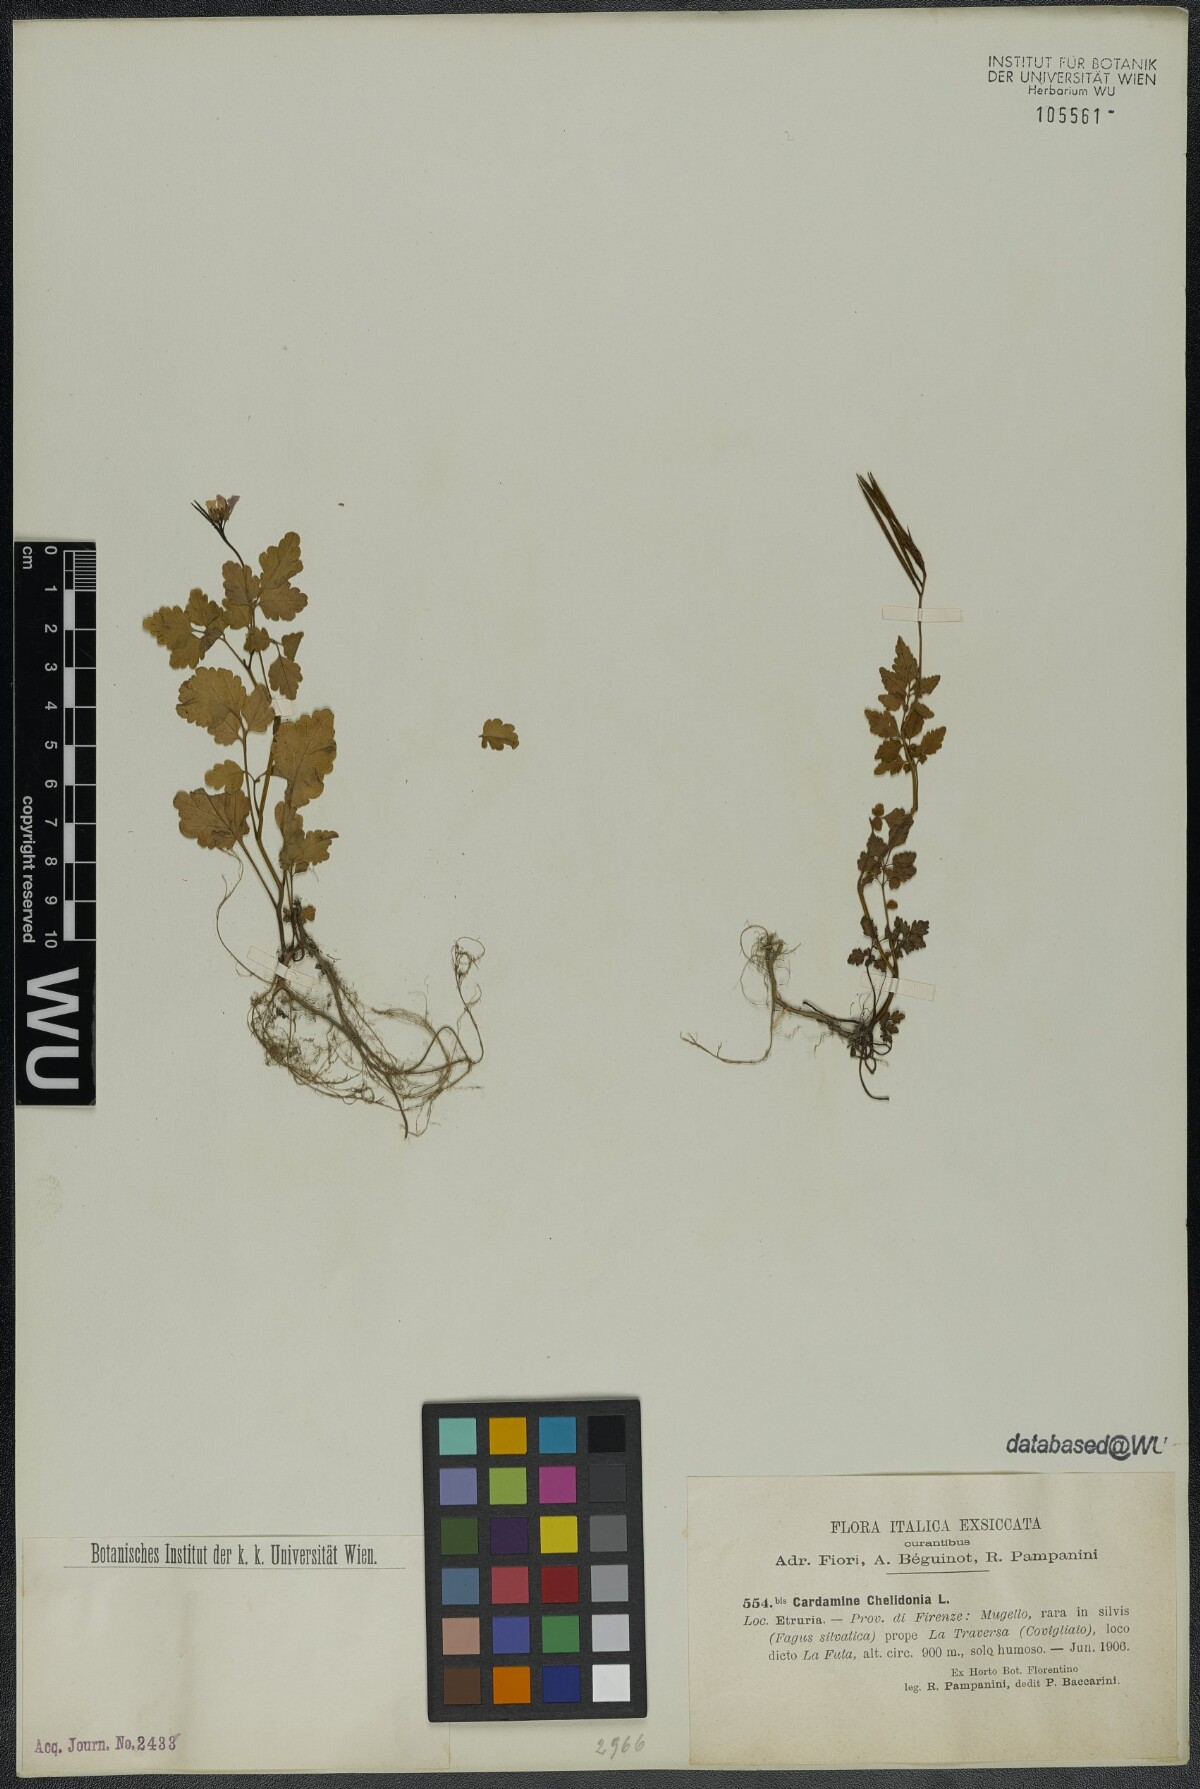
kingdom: Plantae
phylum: Tracheophyta
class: Magnoliopsida
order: Brassicales
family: Brassicaceae
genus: Cardamine
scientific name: Cardamine chelidonia
